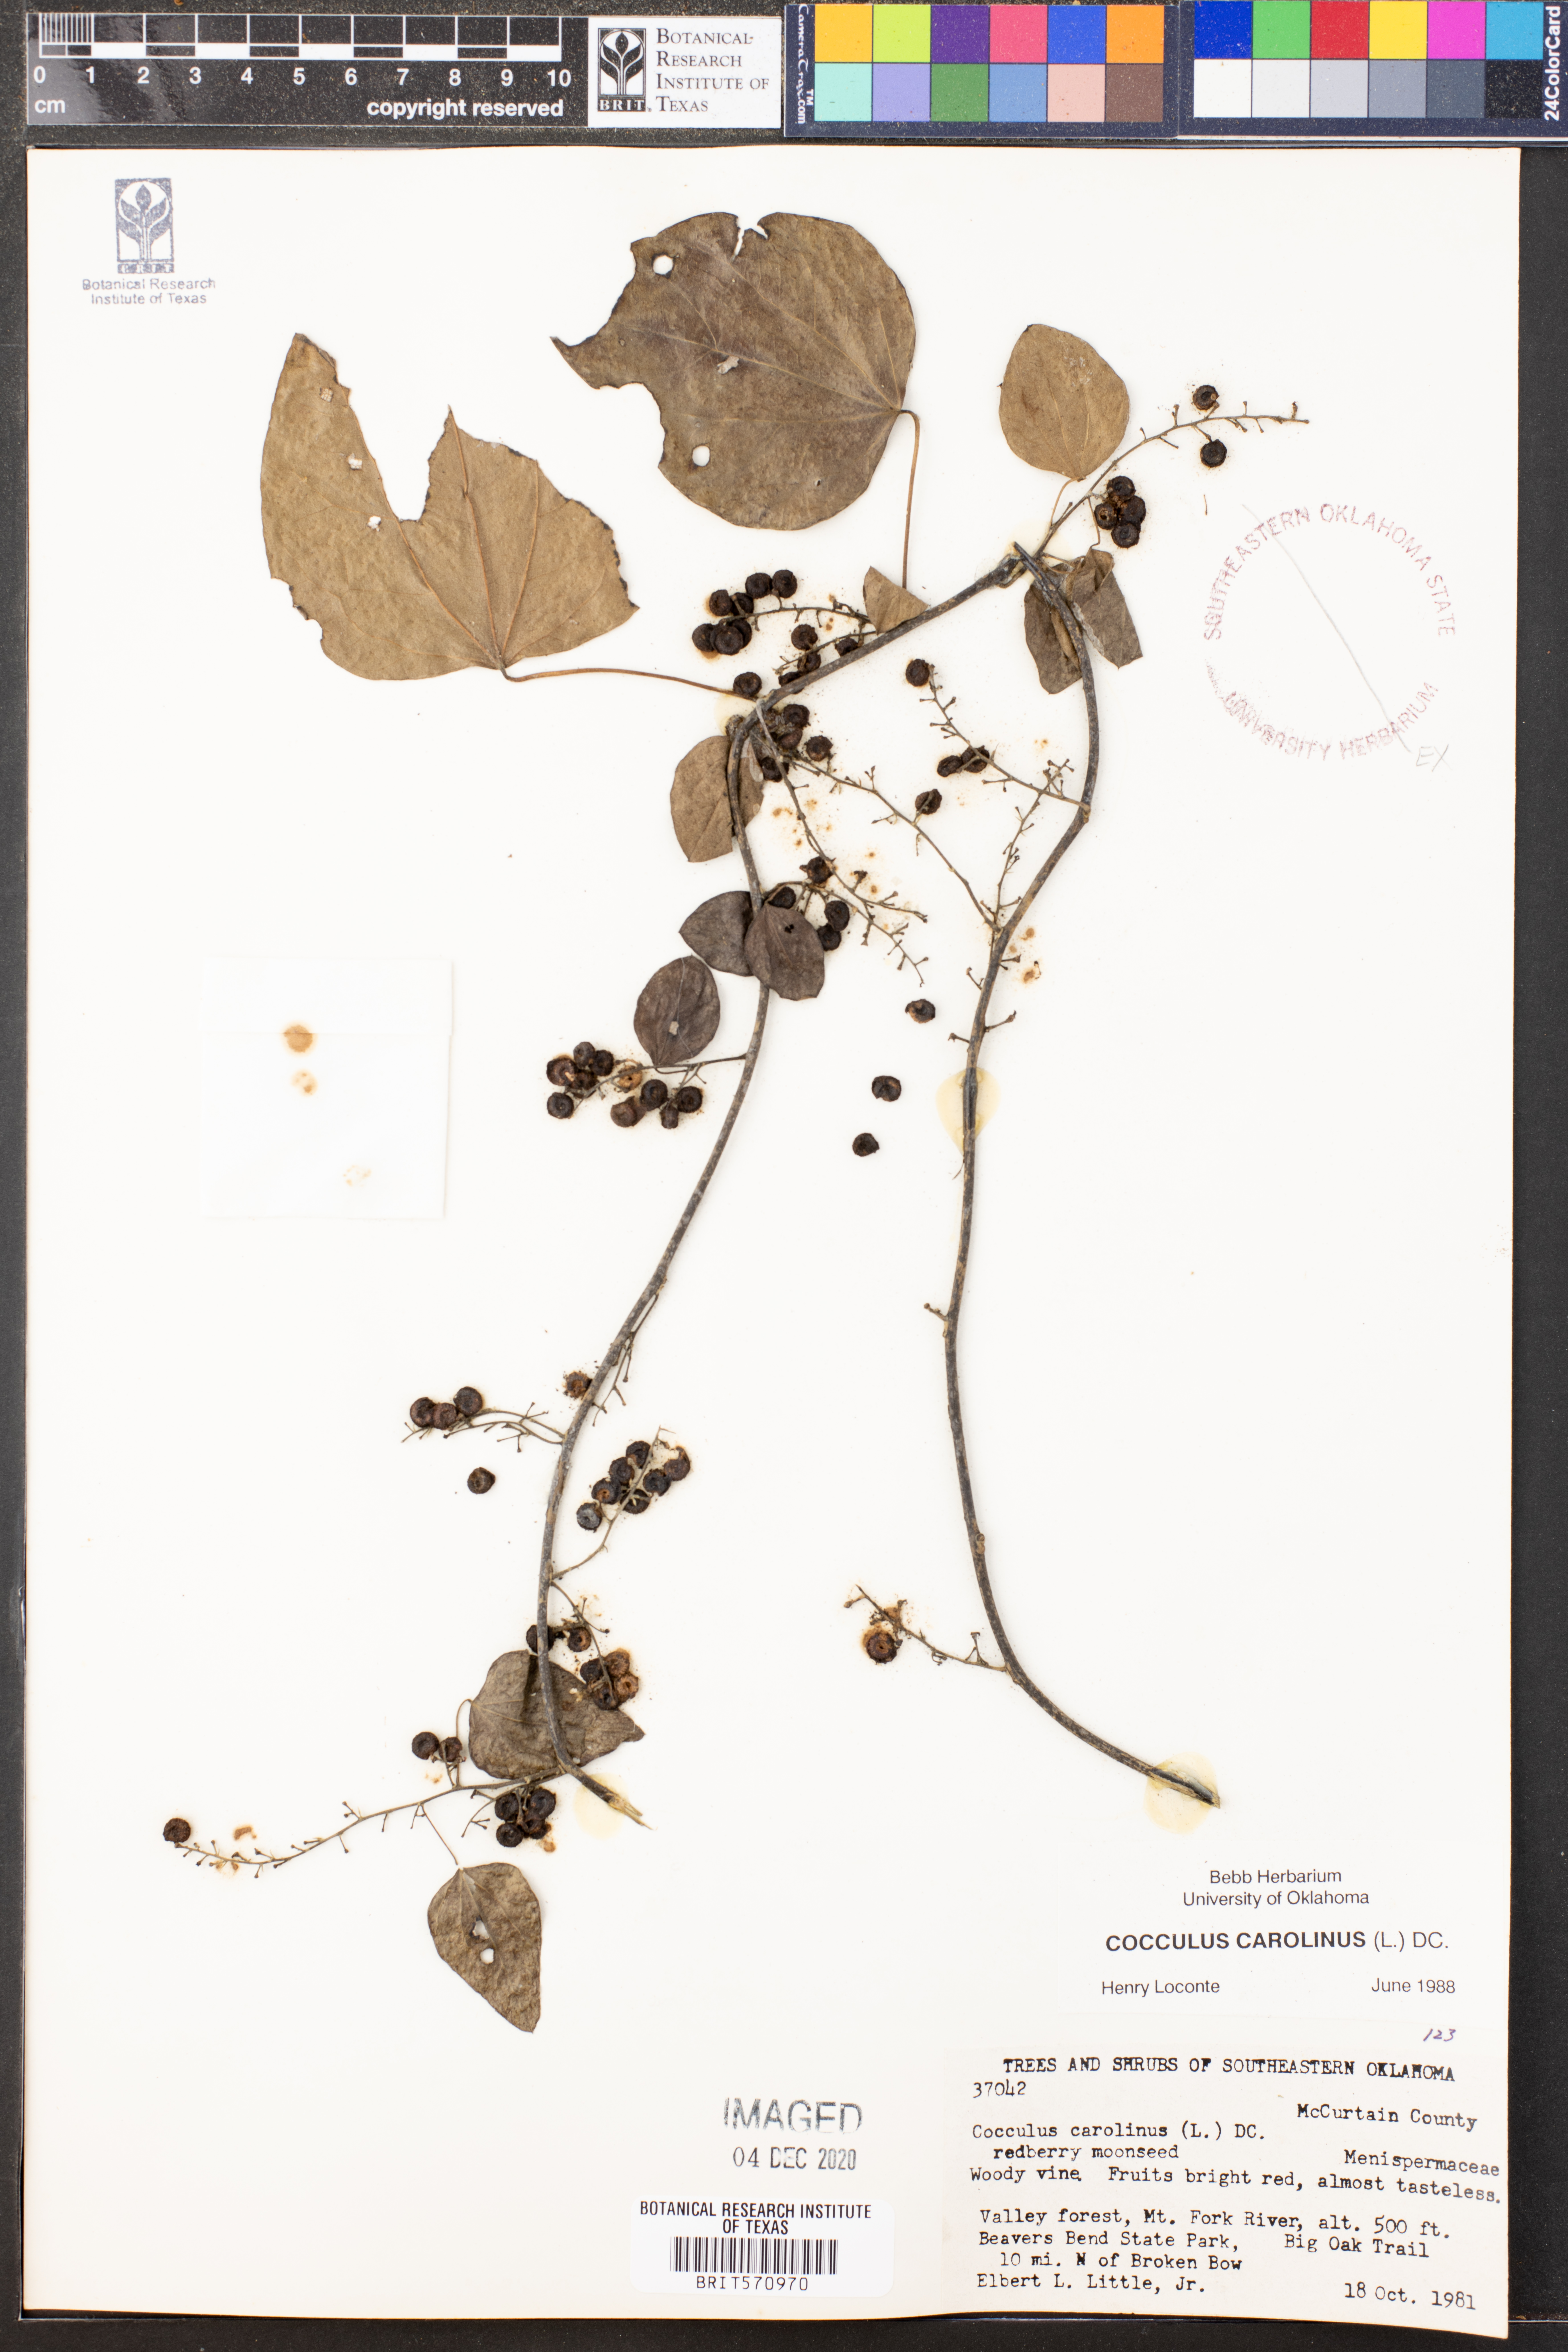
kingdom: Plantae
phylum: Tracheophyta
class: Magnoliopsida
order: Ranunculales
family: Menispermaceae
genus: Cocculus
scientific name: Cocculus carolinus
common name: Carolina moonseed
